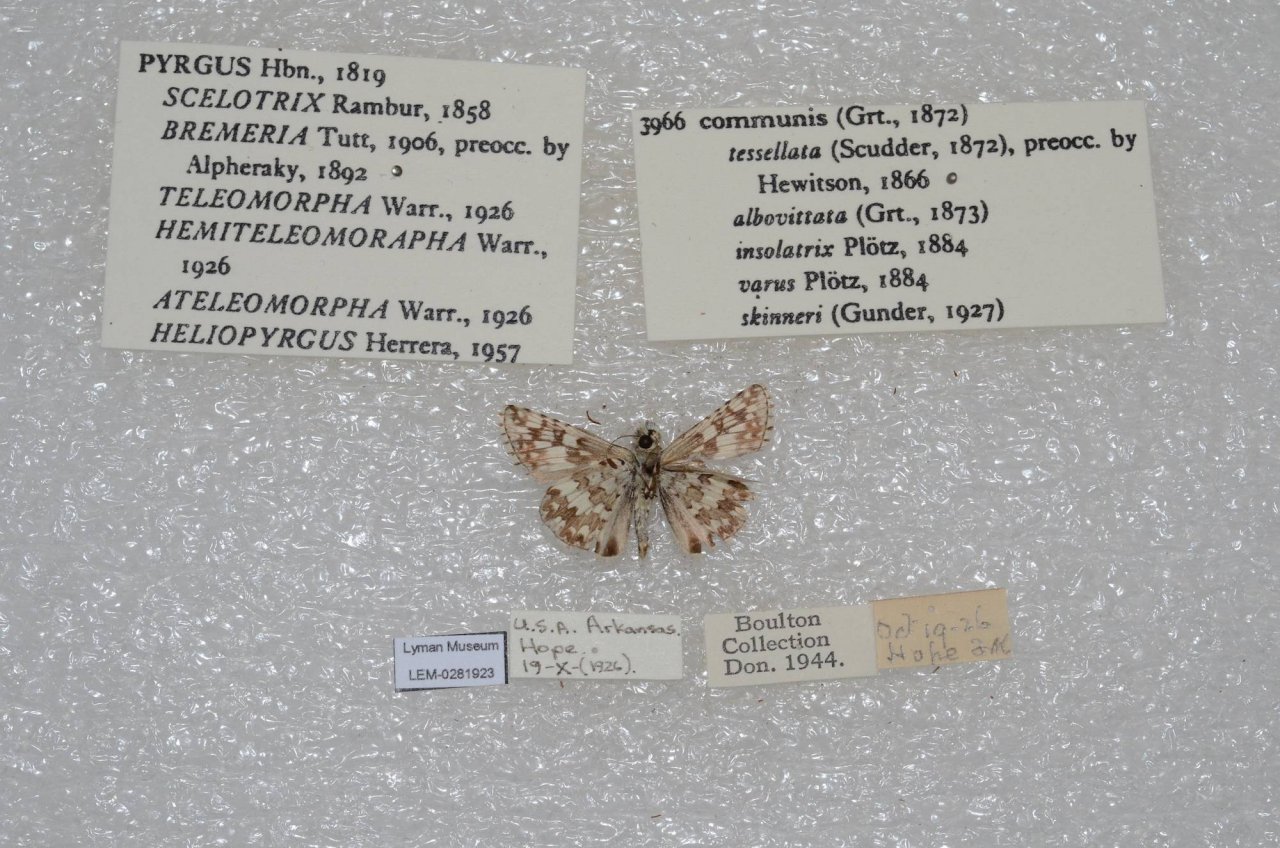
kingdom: Animalia
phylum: Arthropoda
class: Insecta
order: Lepidoptera
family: Hesperiidae
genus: Pyrgus
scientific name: Pyrgus communis
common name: Common Checkered-Skipper
